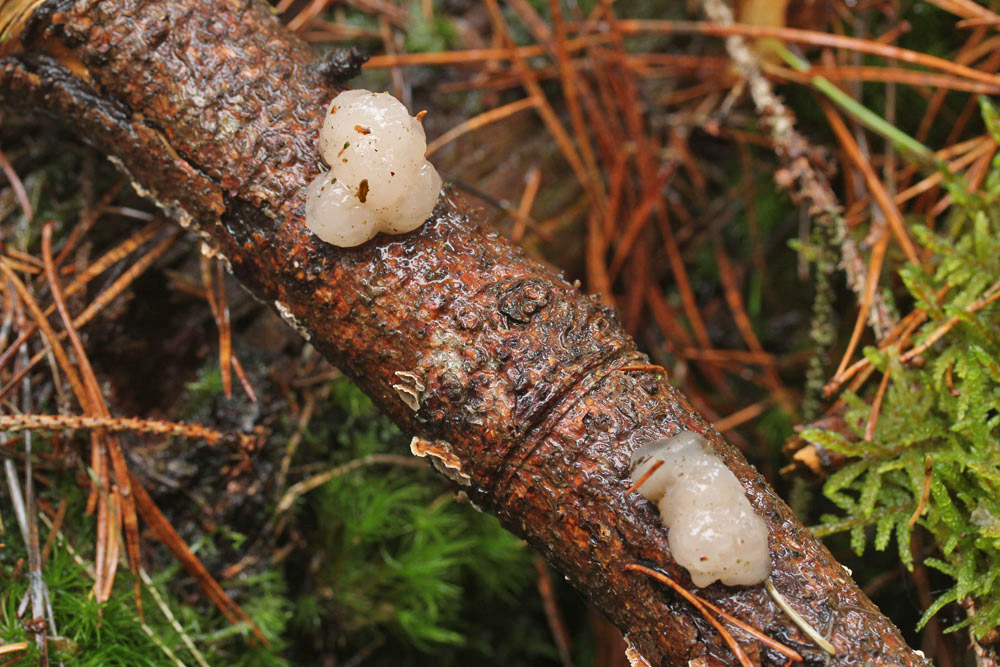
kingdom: Fungi
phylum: Basidiomycota
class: Tremellomycetes
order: Tremellales
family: Naemateliaceae
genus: Naematelia
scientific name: Naematelia encephala
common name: fyrre-bævresvamp
